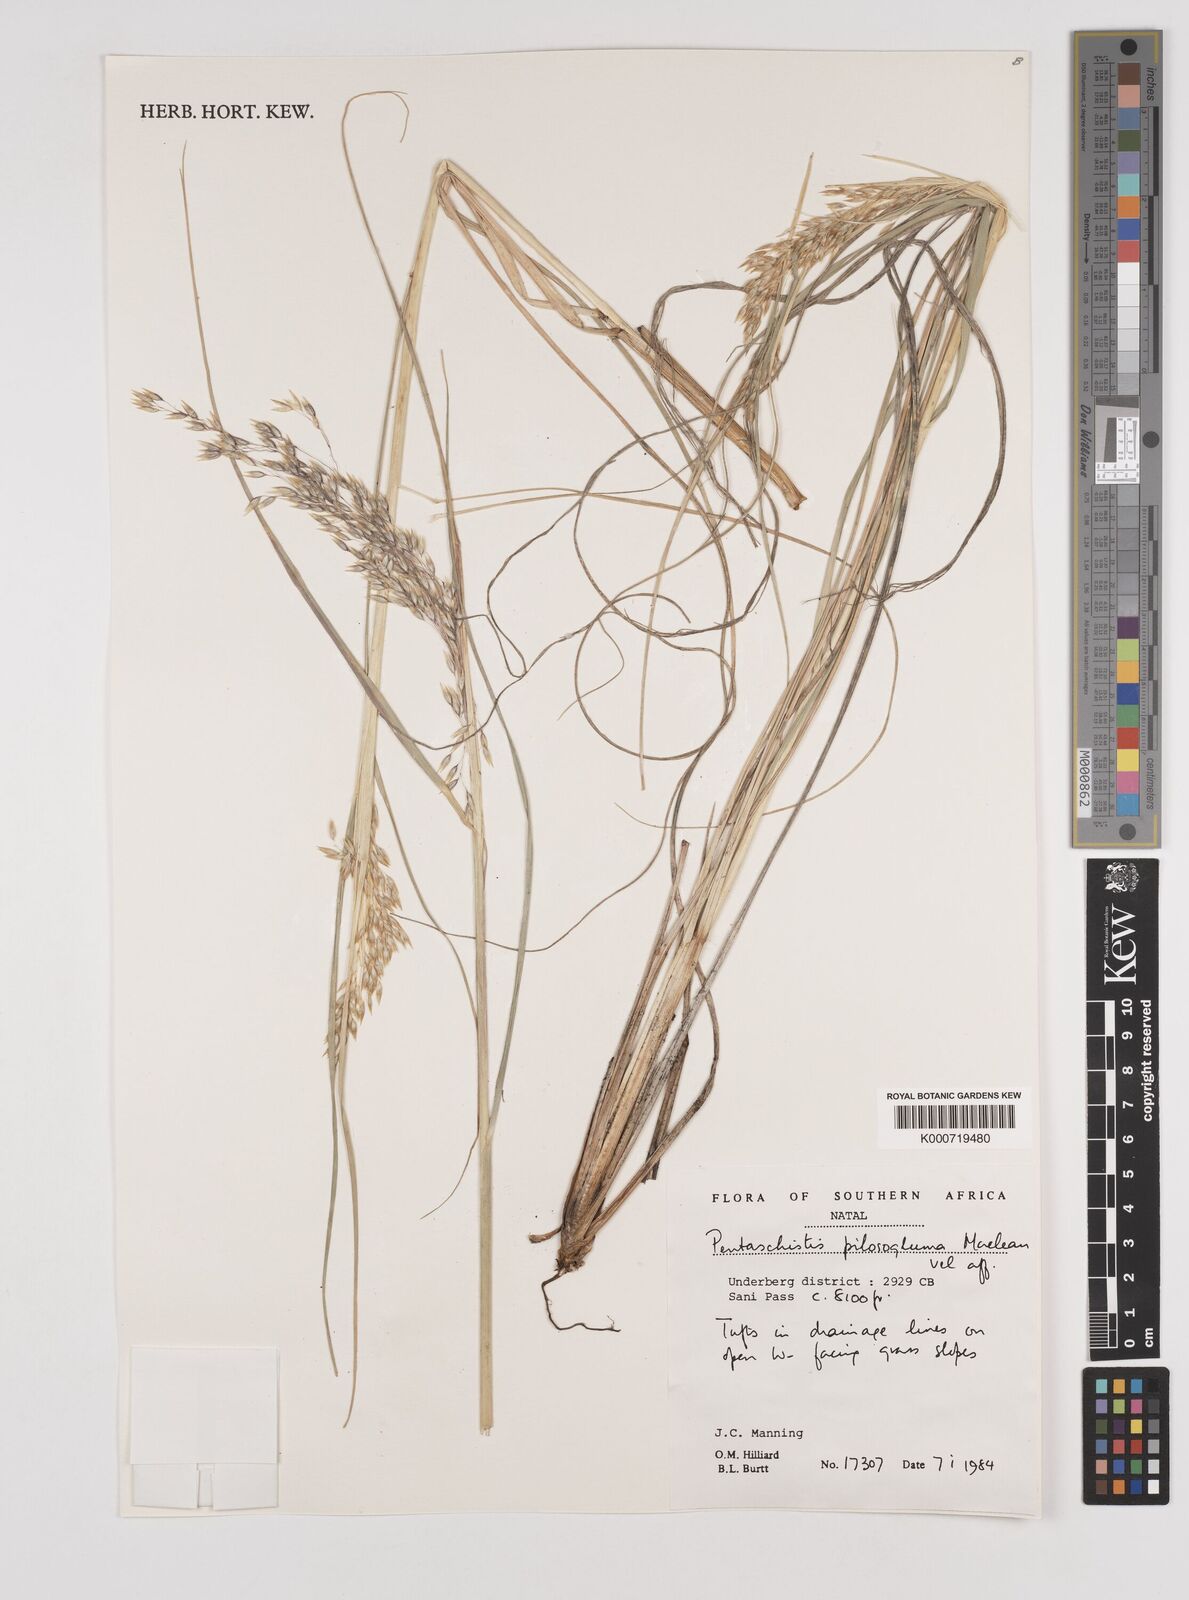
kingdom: Plantae
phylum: Tracheophyta
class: Liliopsida
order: Poales
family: Poaceae
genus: Pentameris
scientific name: Pentameris aurea
